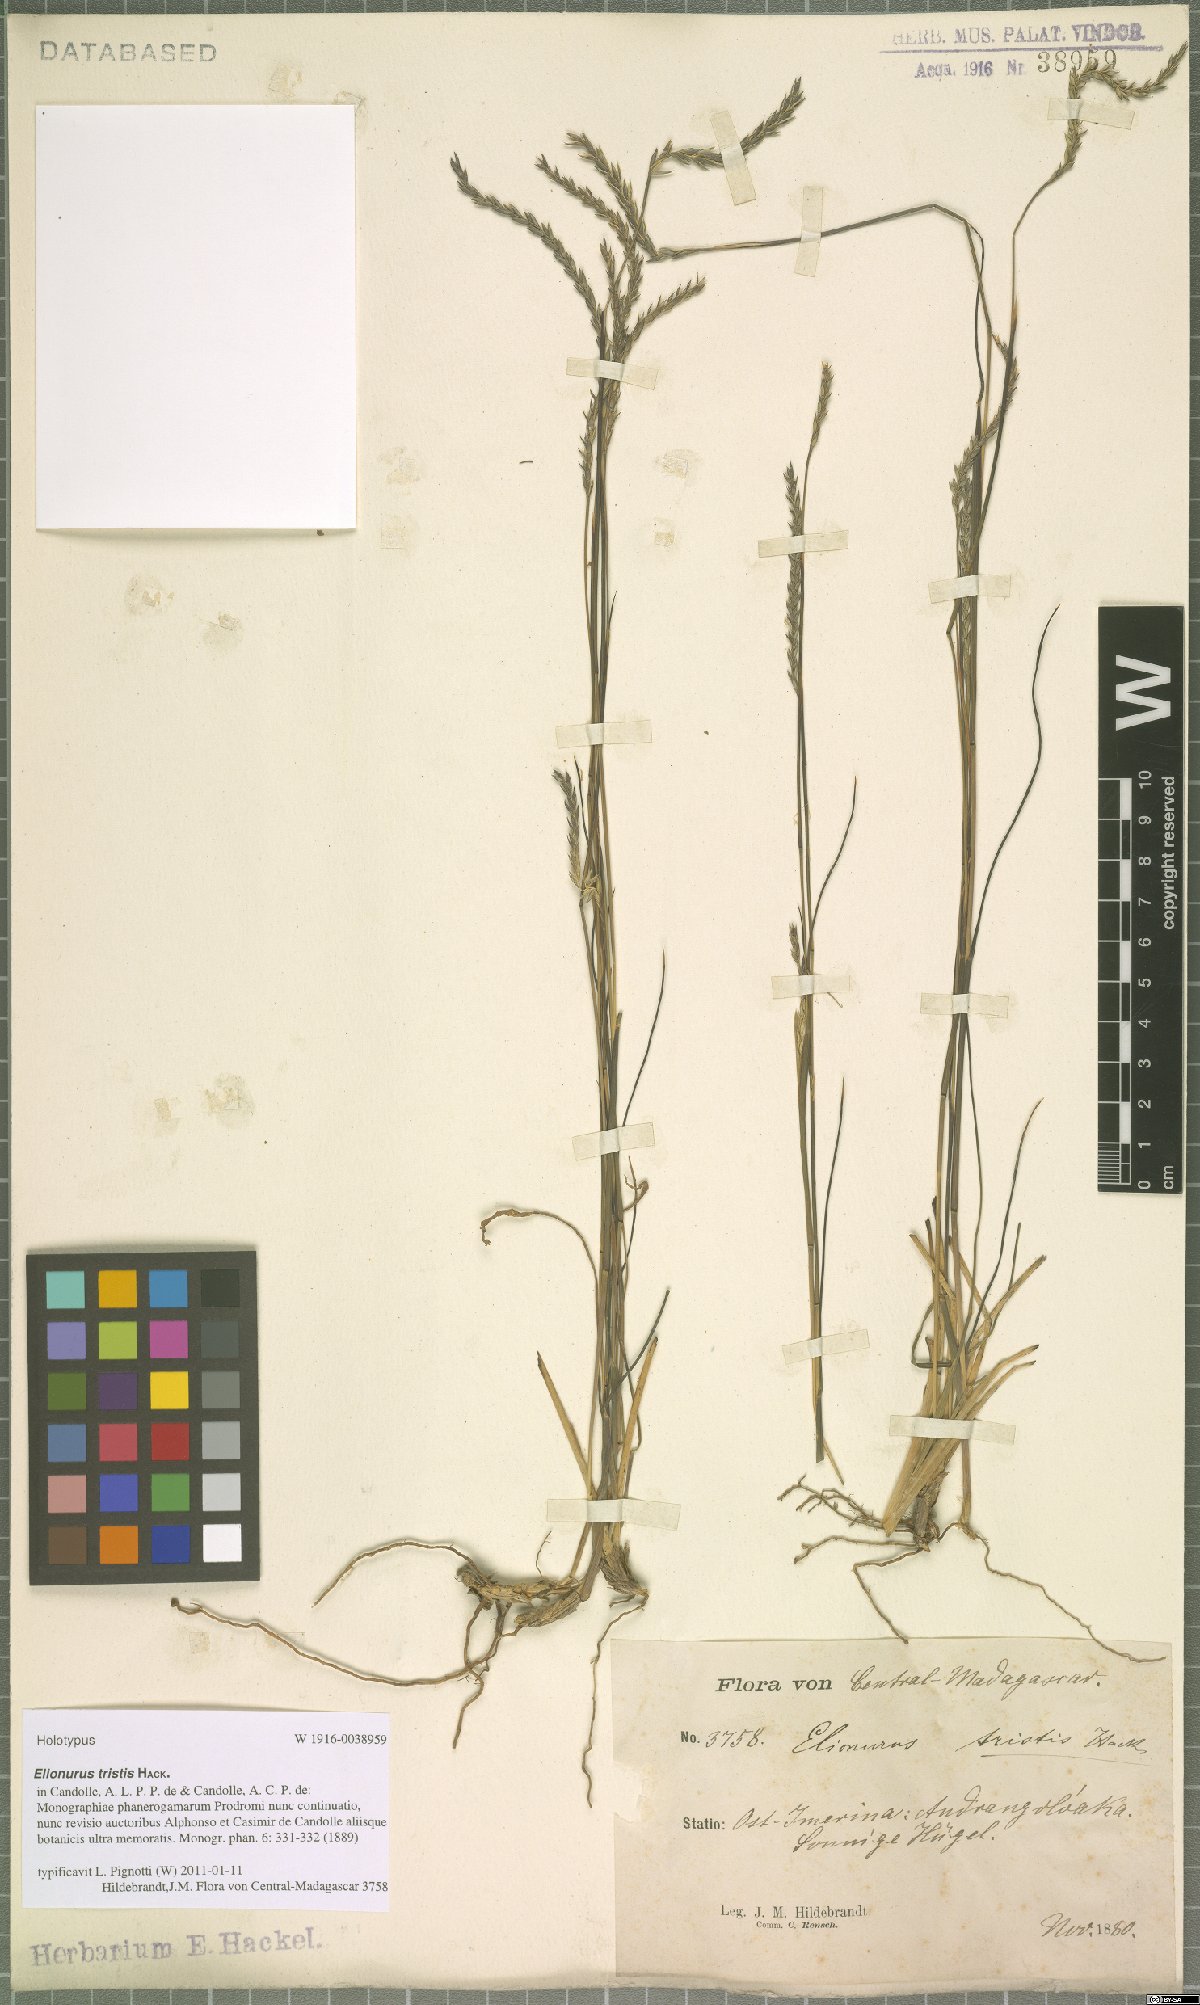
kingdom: Plantae
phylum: Tracheophyta
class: Liliopsida
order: Poales
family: Poaceae
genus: Elionurus
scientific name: Elionurus tristis
